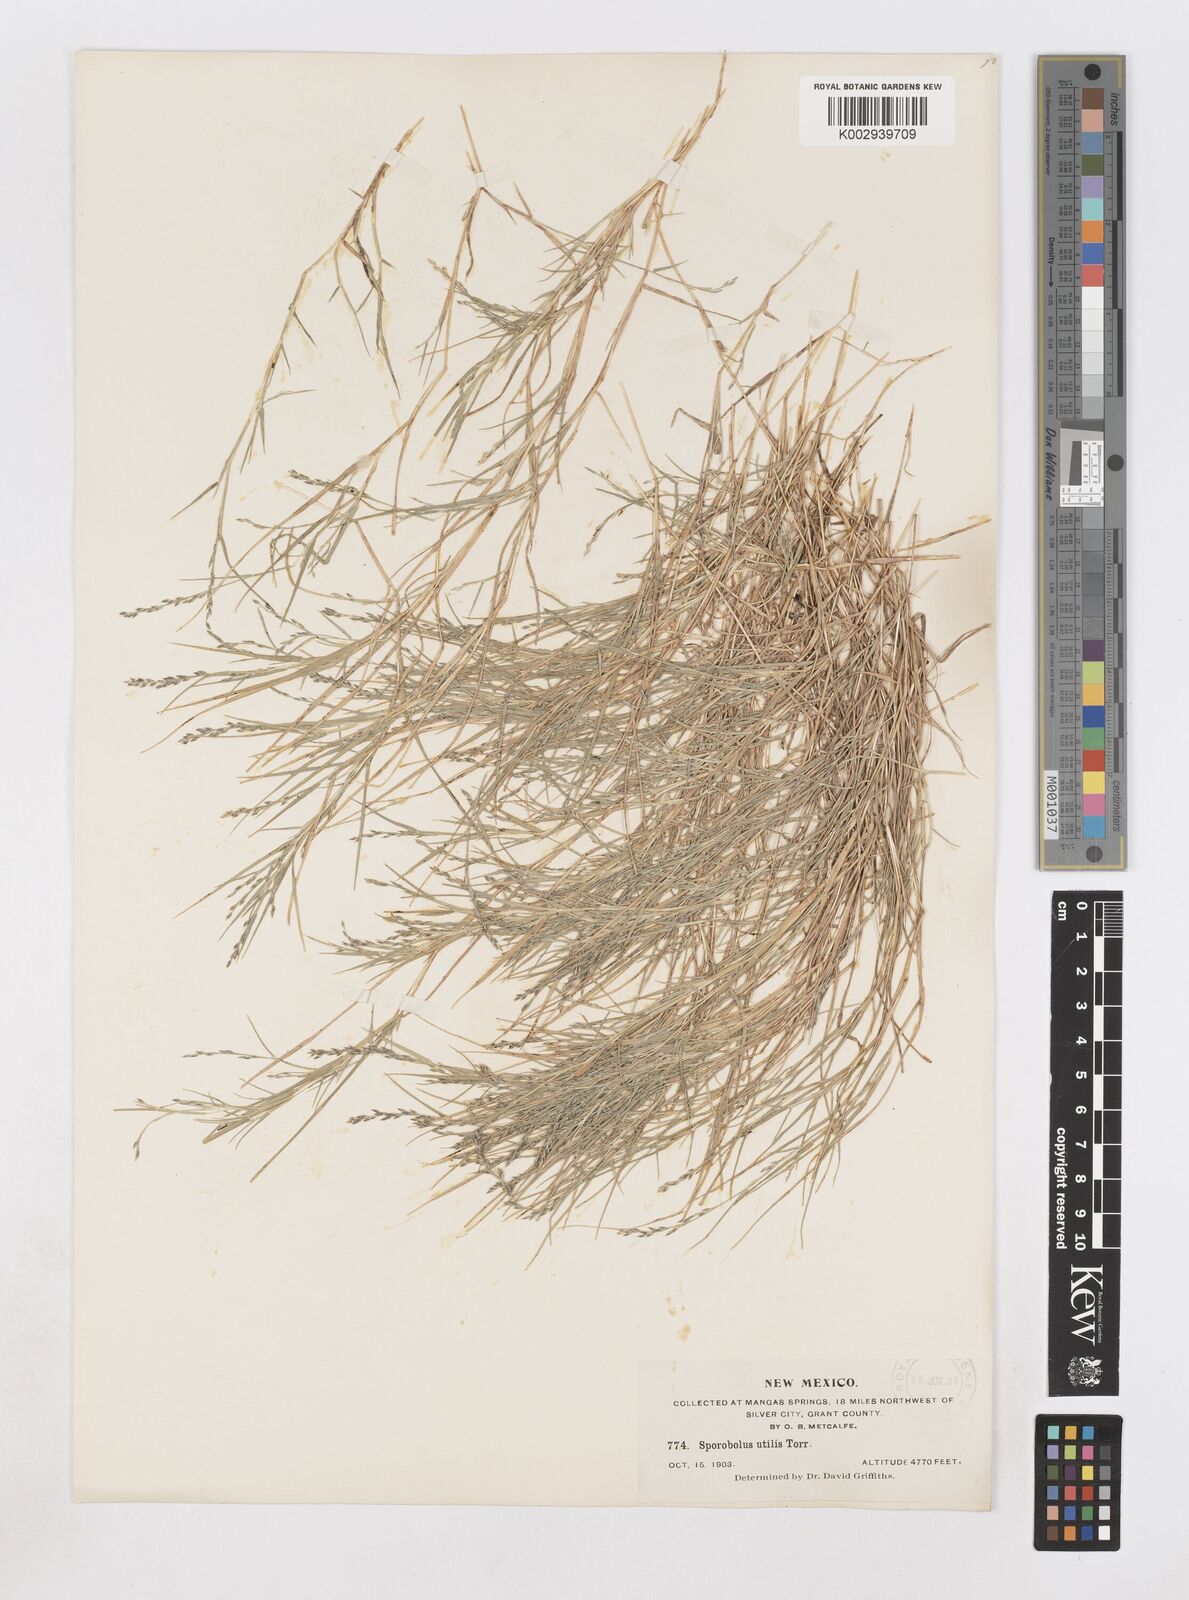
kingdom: Plantae
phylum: Tracheophyta
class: Liliopsida
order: Poales
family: Poaceae
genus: Muhlenbergia
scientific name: Muhlenbergia utilis
